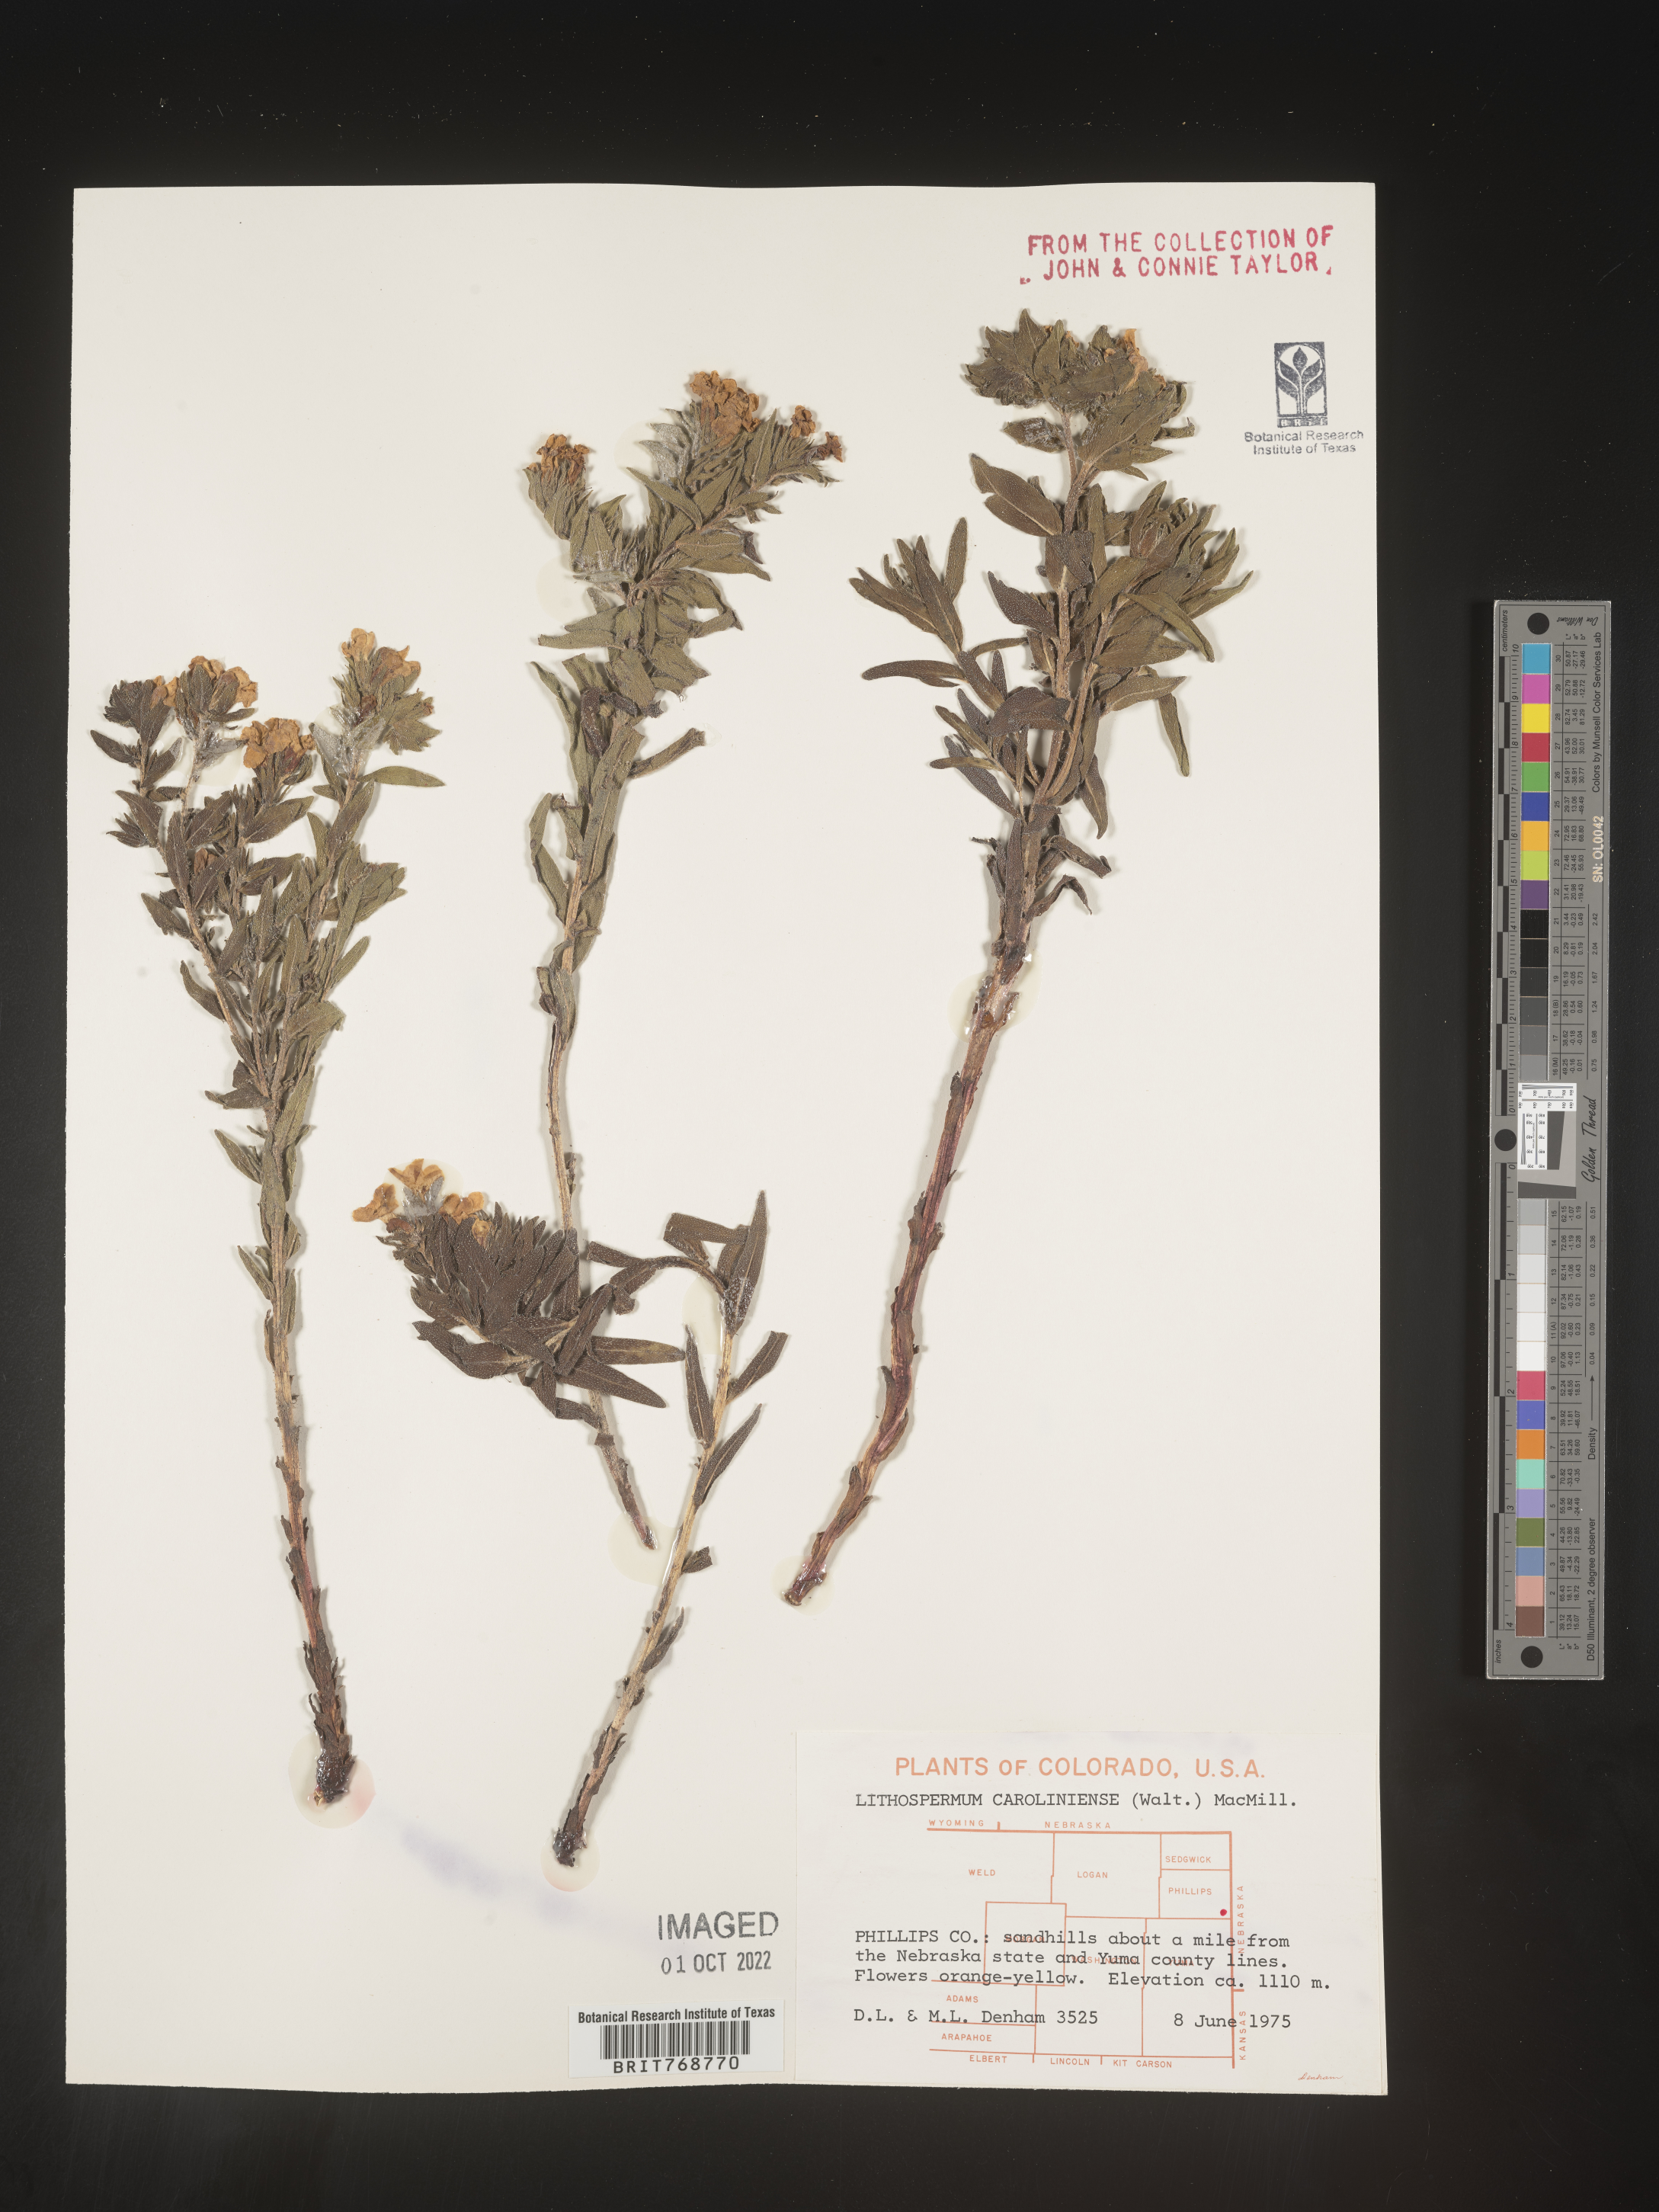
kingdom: Plantae
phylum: Tracheophyta
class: Magnoliopsida
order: Boraginales
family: Boraginaceae
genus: Lithospermum
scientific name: Lithospermum caroliniense
